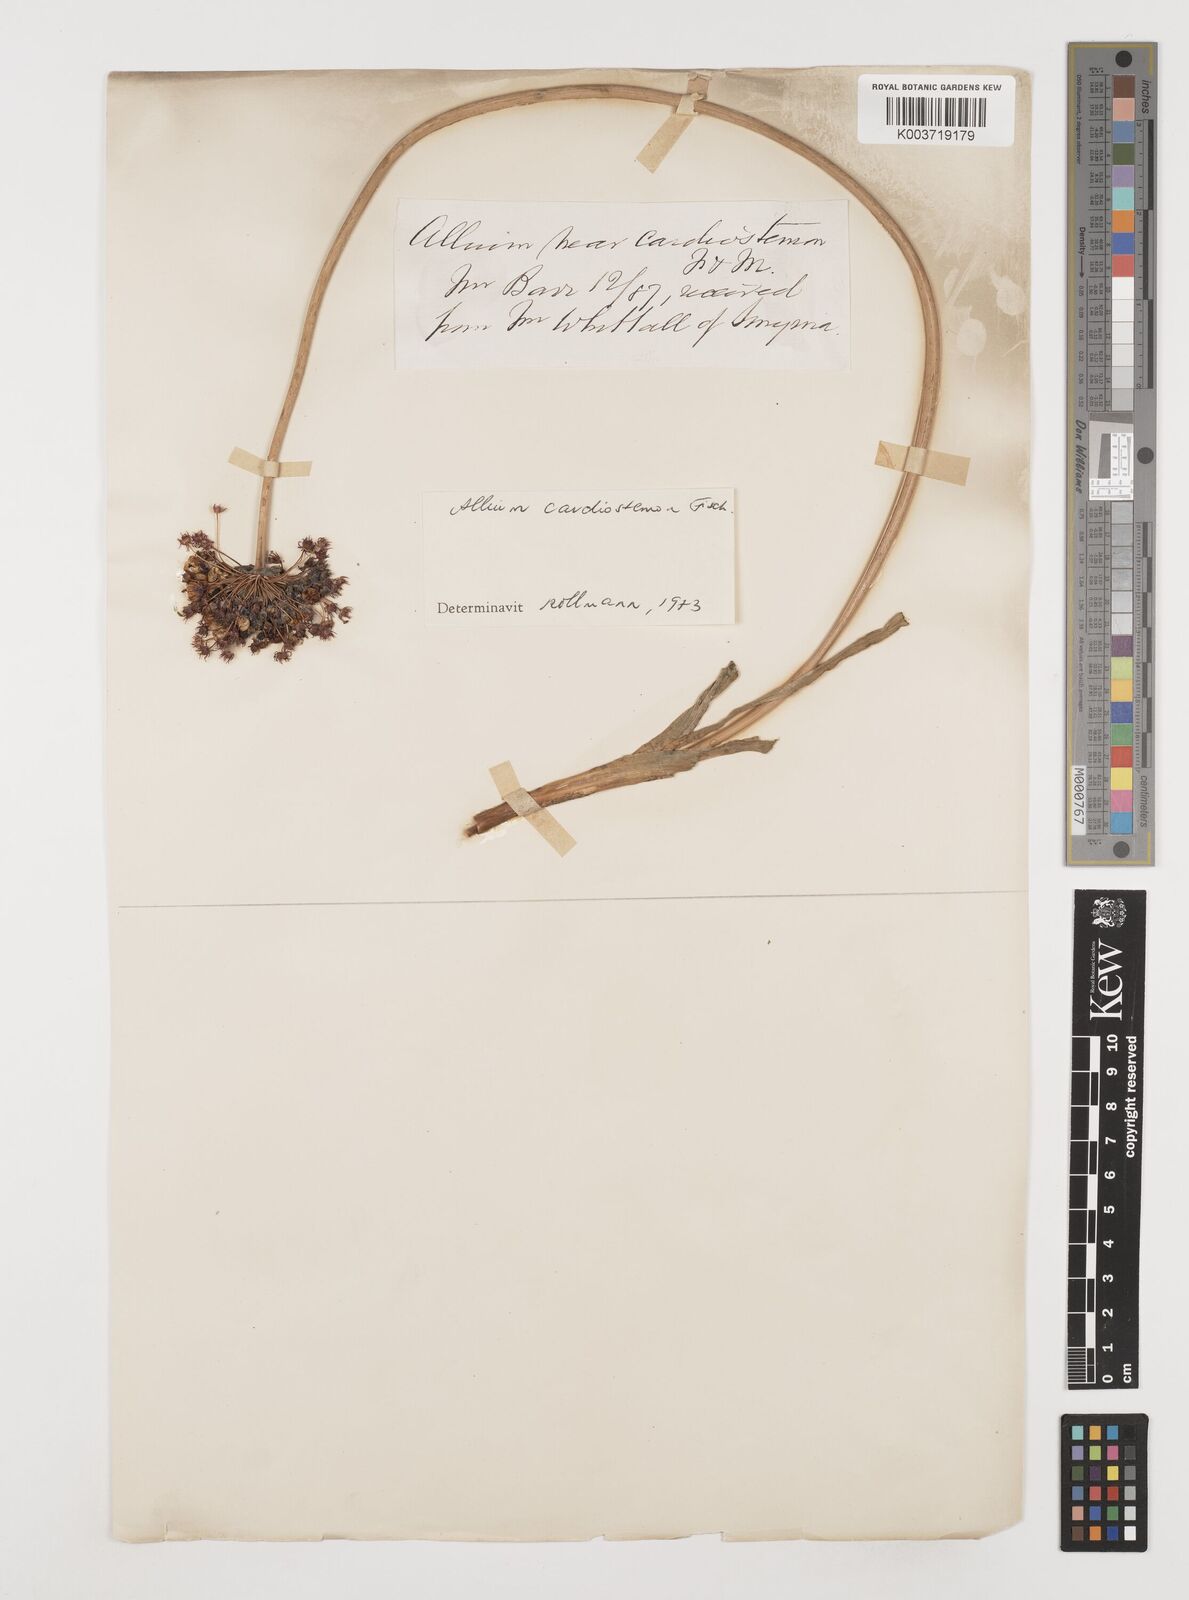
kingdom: Plantae
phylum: Tracheophyta
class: Liliopsida
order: Asparagales
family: Amaryllidaceae
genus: Allium
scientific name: Allium cardiostemon
